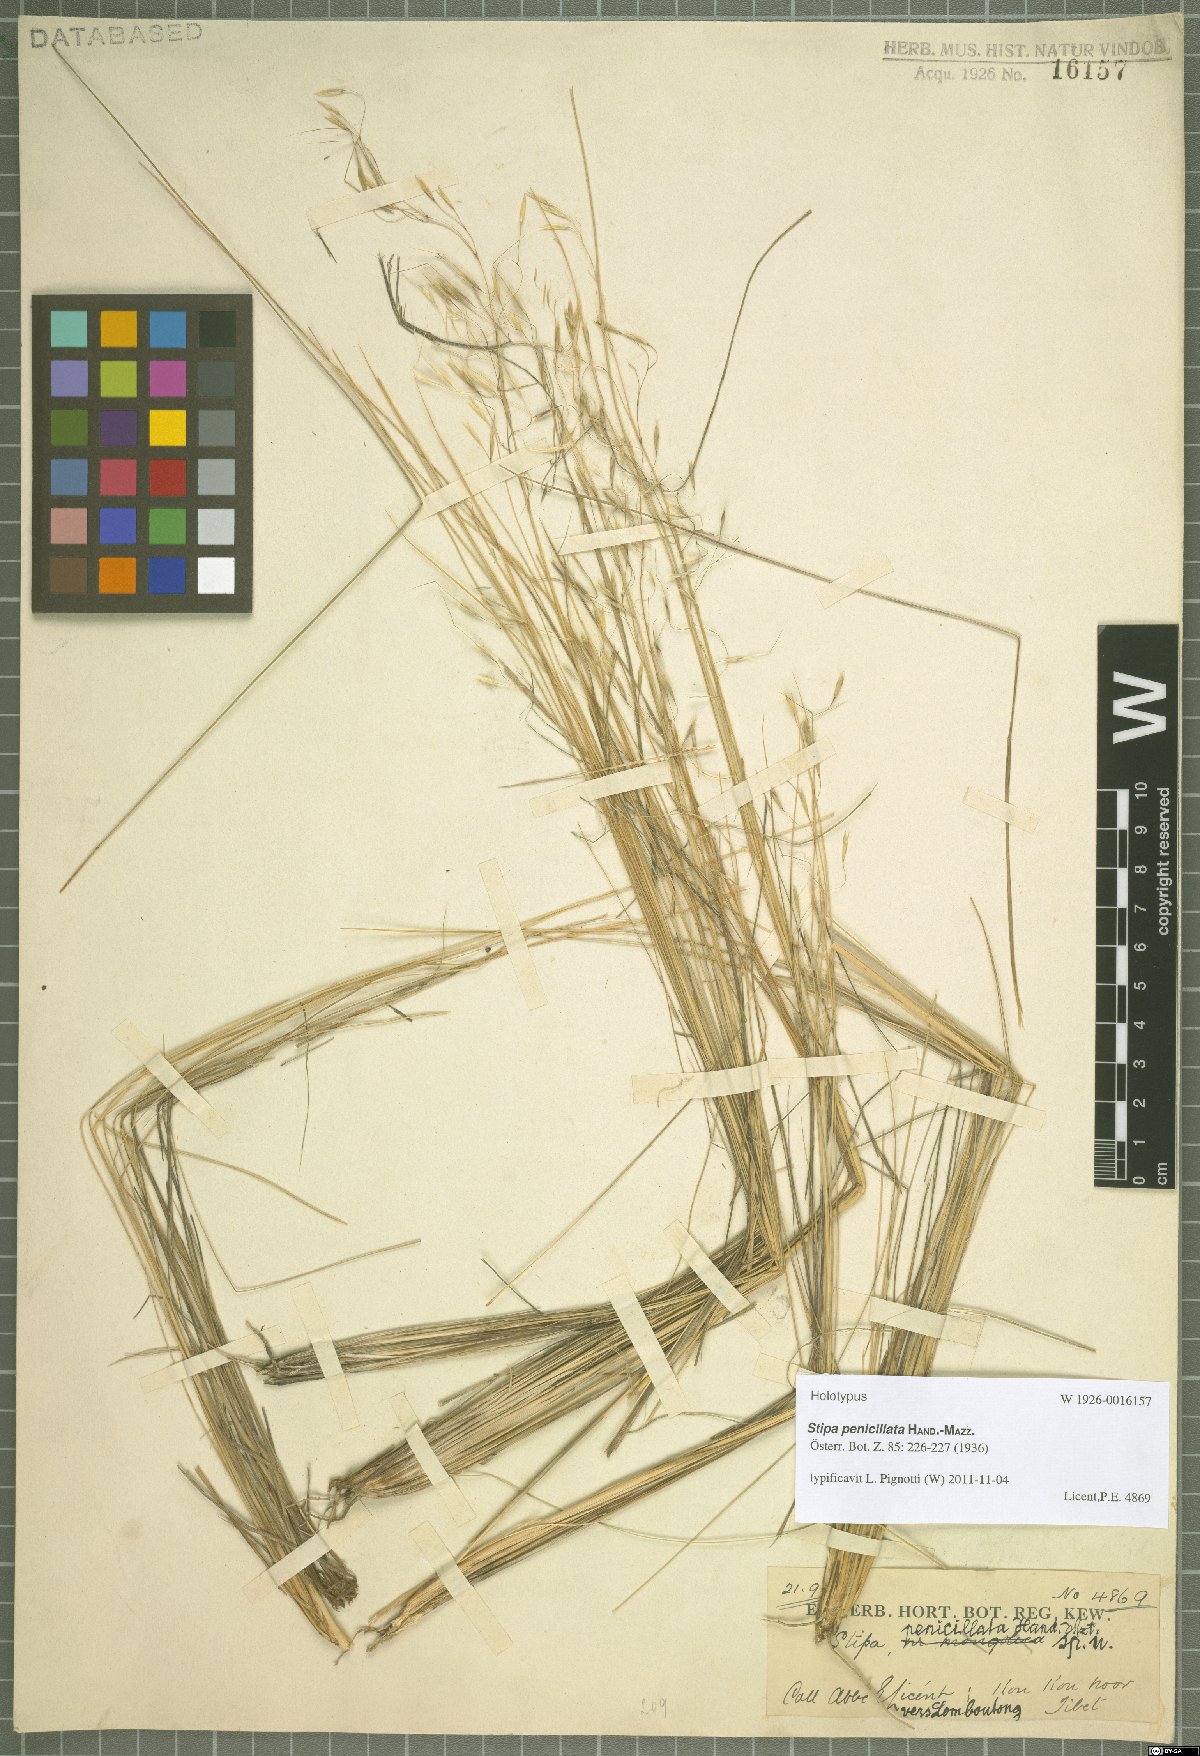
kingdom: Plantae
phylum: Tracheophyta
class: Liliopsida
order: Poales
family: Poaceae
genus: Stipa
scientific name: Stipa penicillata
